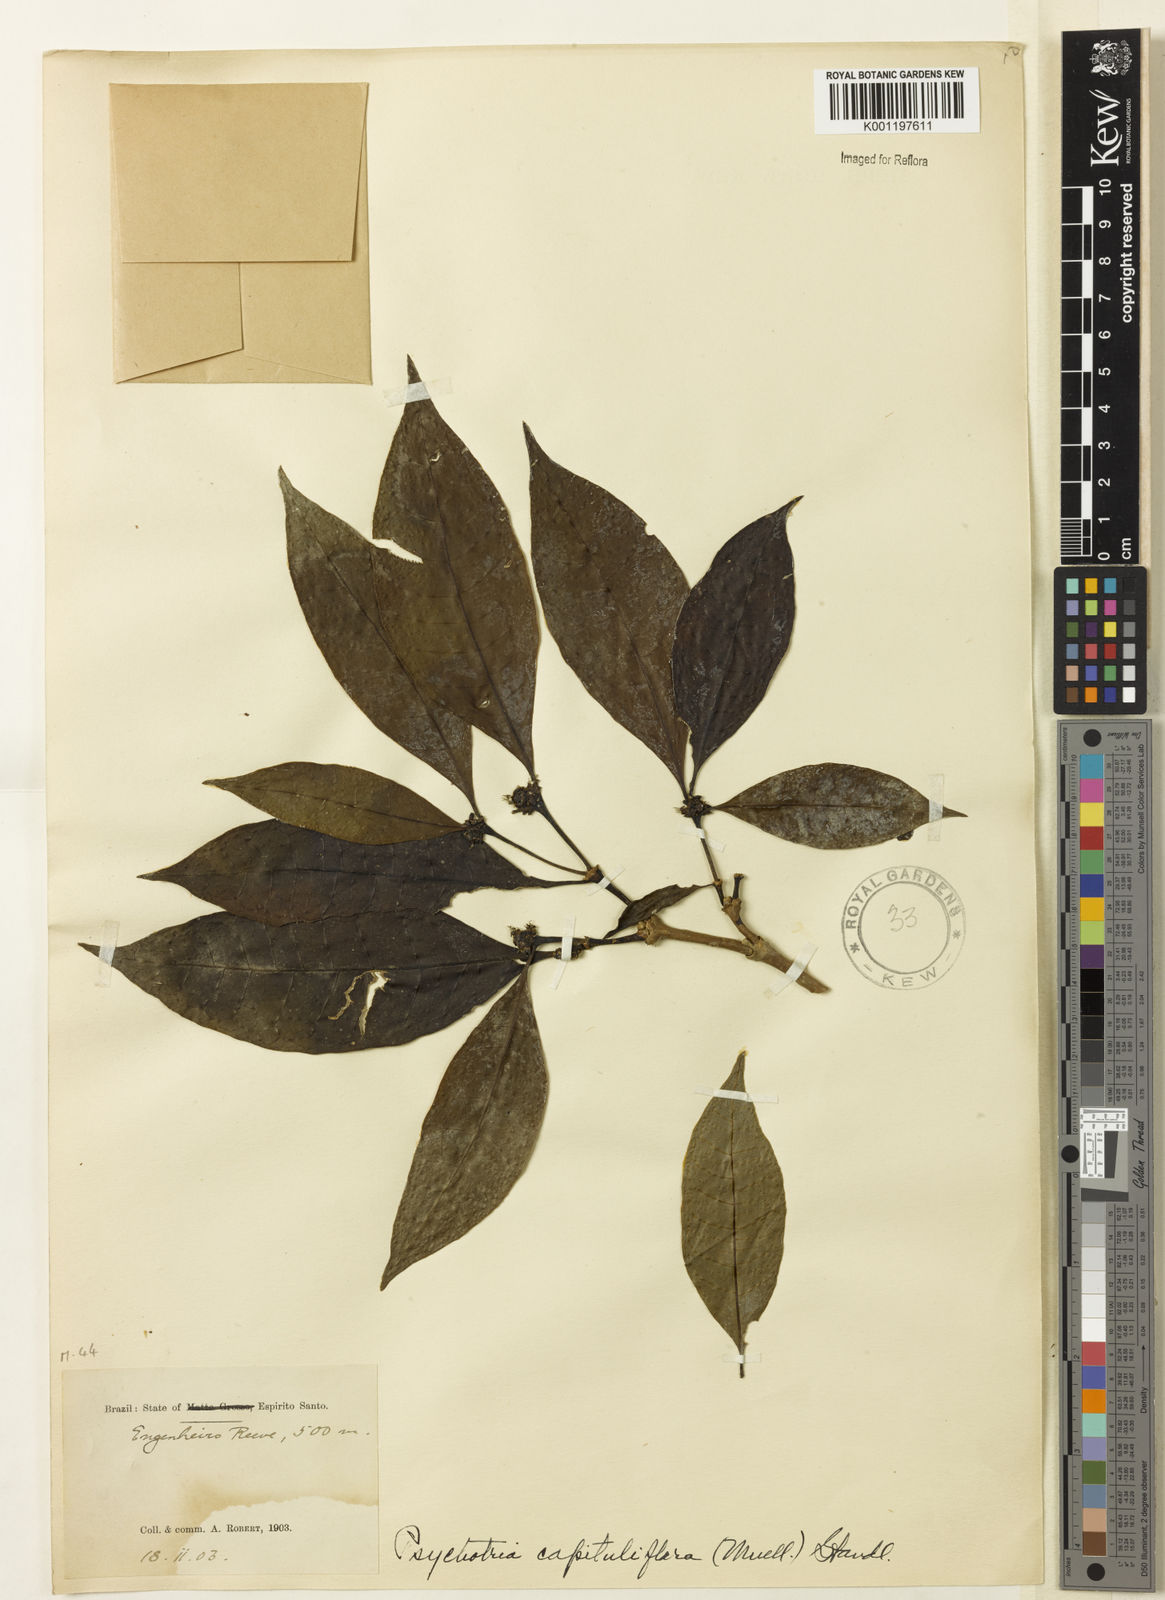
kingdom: Plantae
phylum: Tracheophyta
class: Magnoliopsida
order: Gentianales
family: Rubiaceae
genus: Psychotria
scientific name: Psychotria capitulifera
